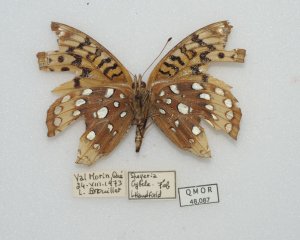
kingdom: Animalia
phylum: Arthropoda
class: Insecta
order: Lepidoptera
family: Nymphalidae
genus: Speyeria
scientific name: Speyeria cybele
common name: Great Spangled Fritillary
